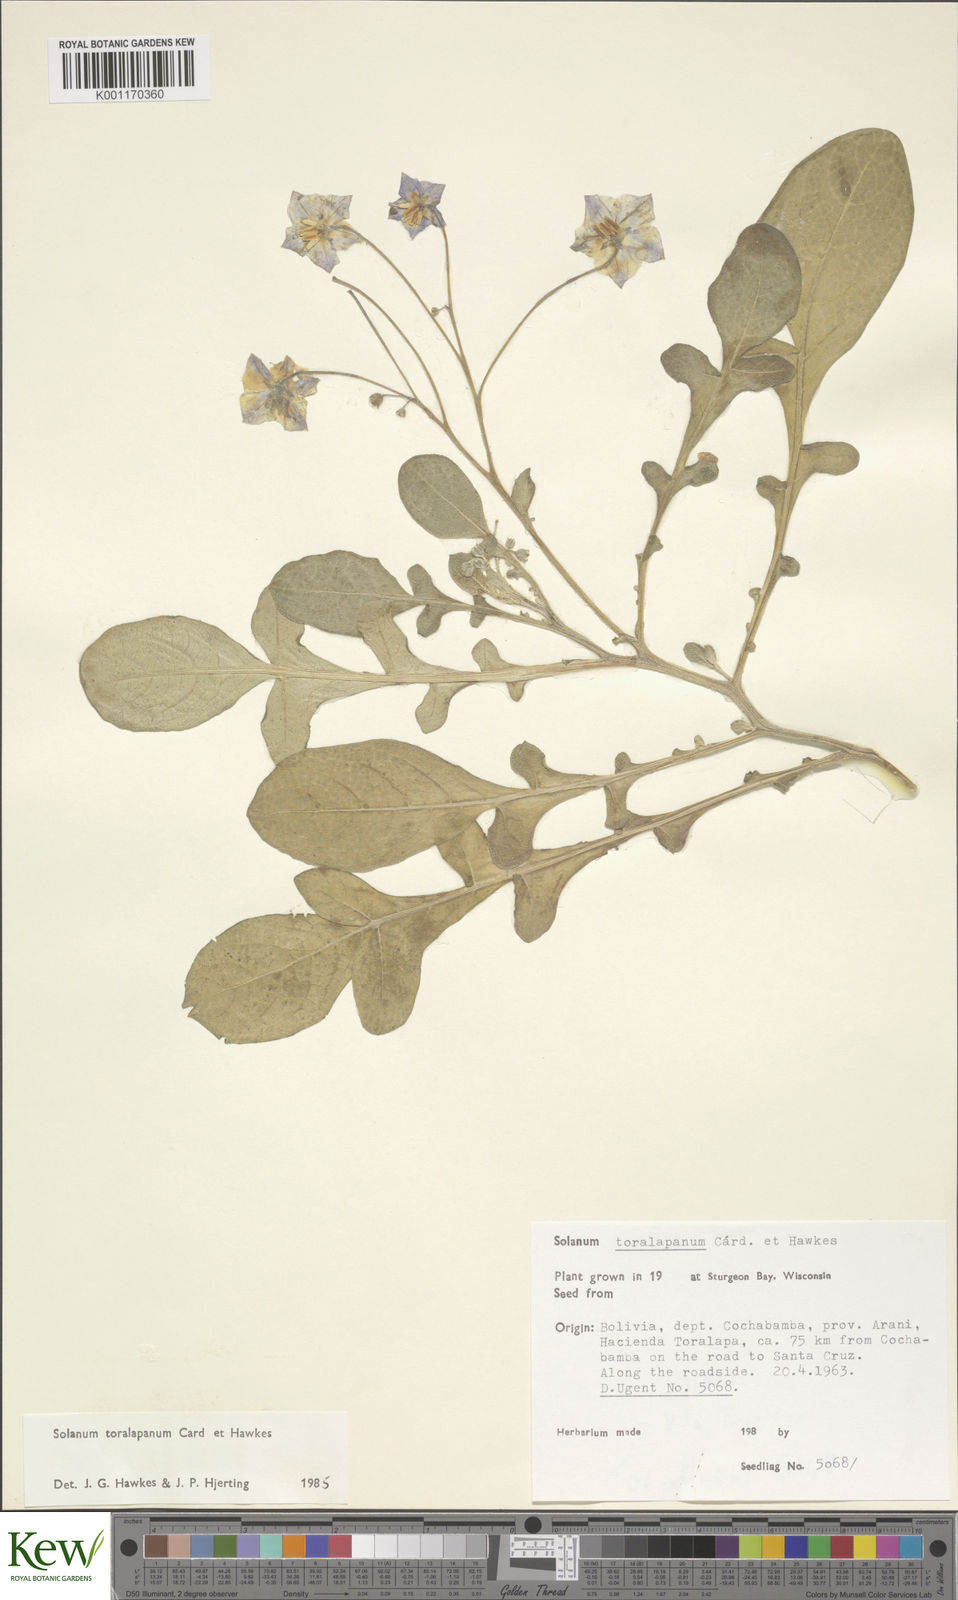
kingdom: Plantae
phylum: Tracheophyta
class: Magnoliopsida
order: Solanales
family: Solanaceae
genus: Solanum
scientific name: Solanum
